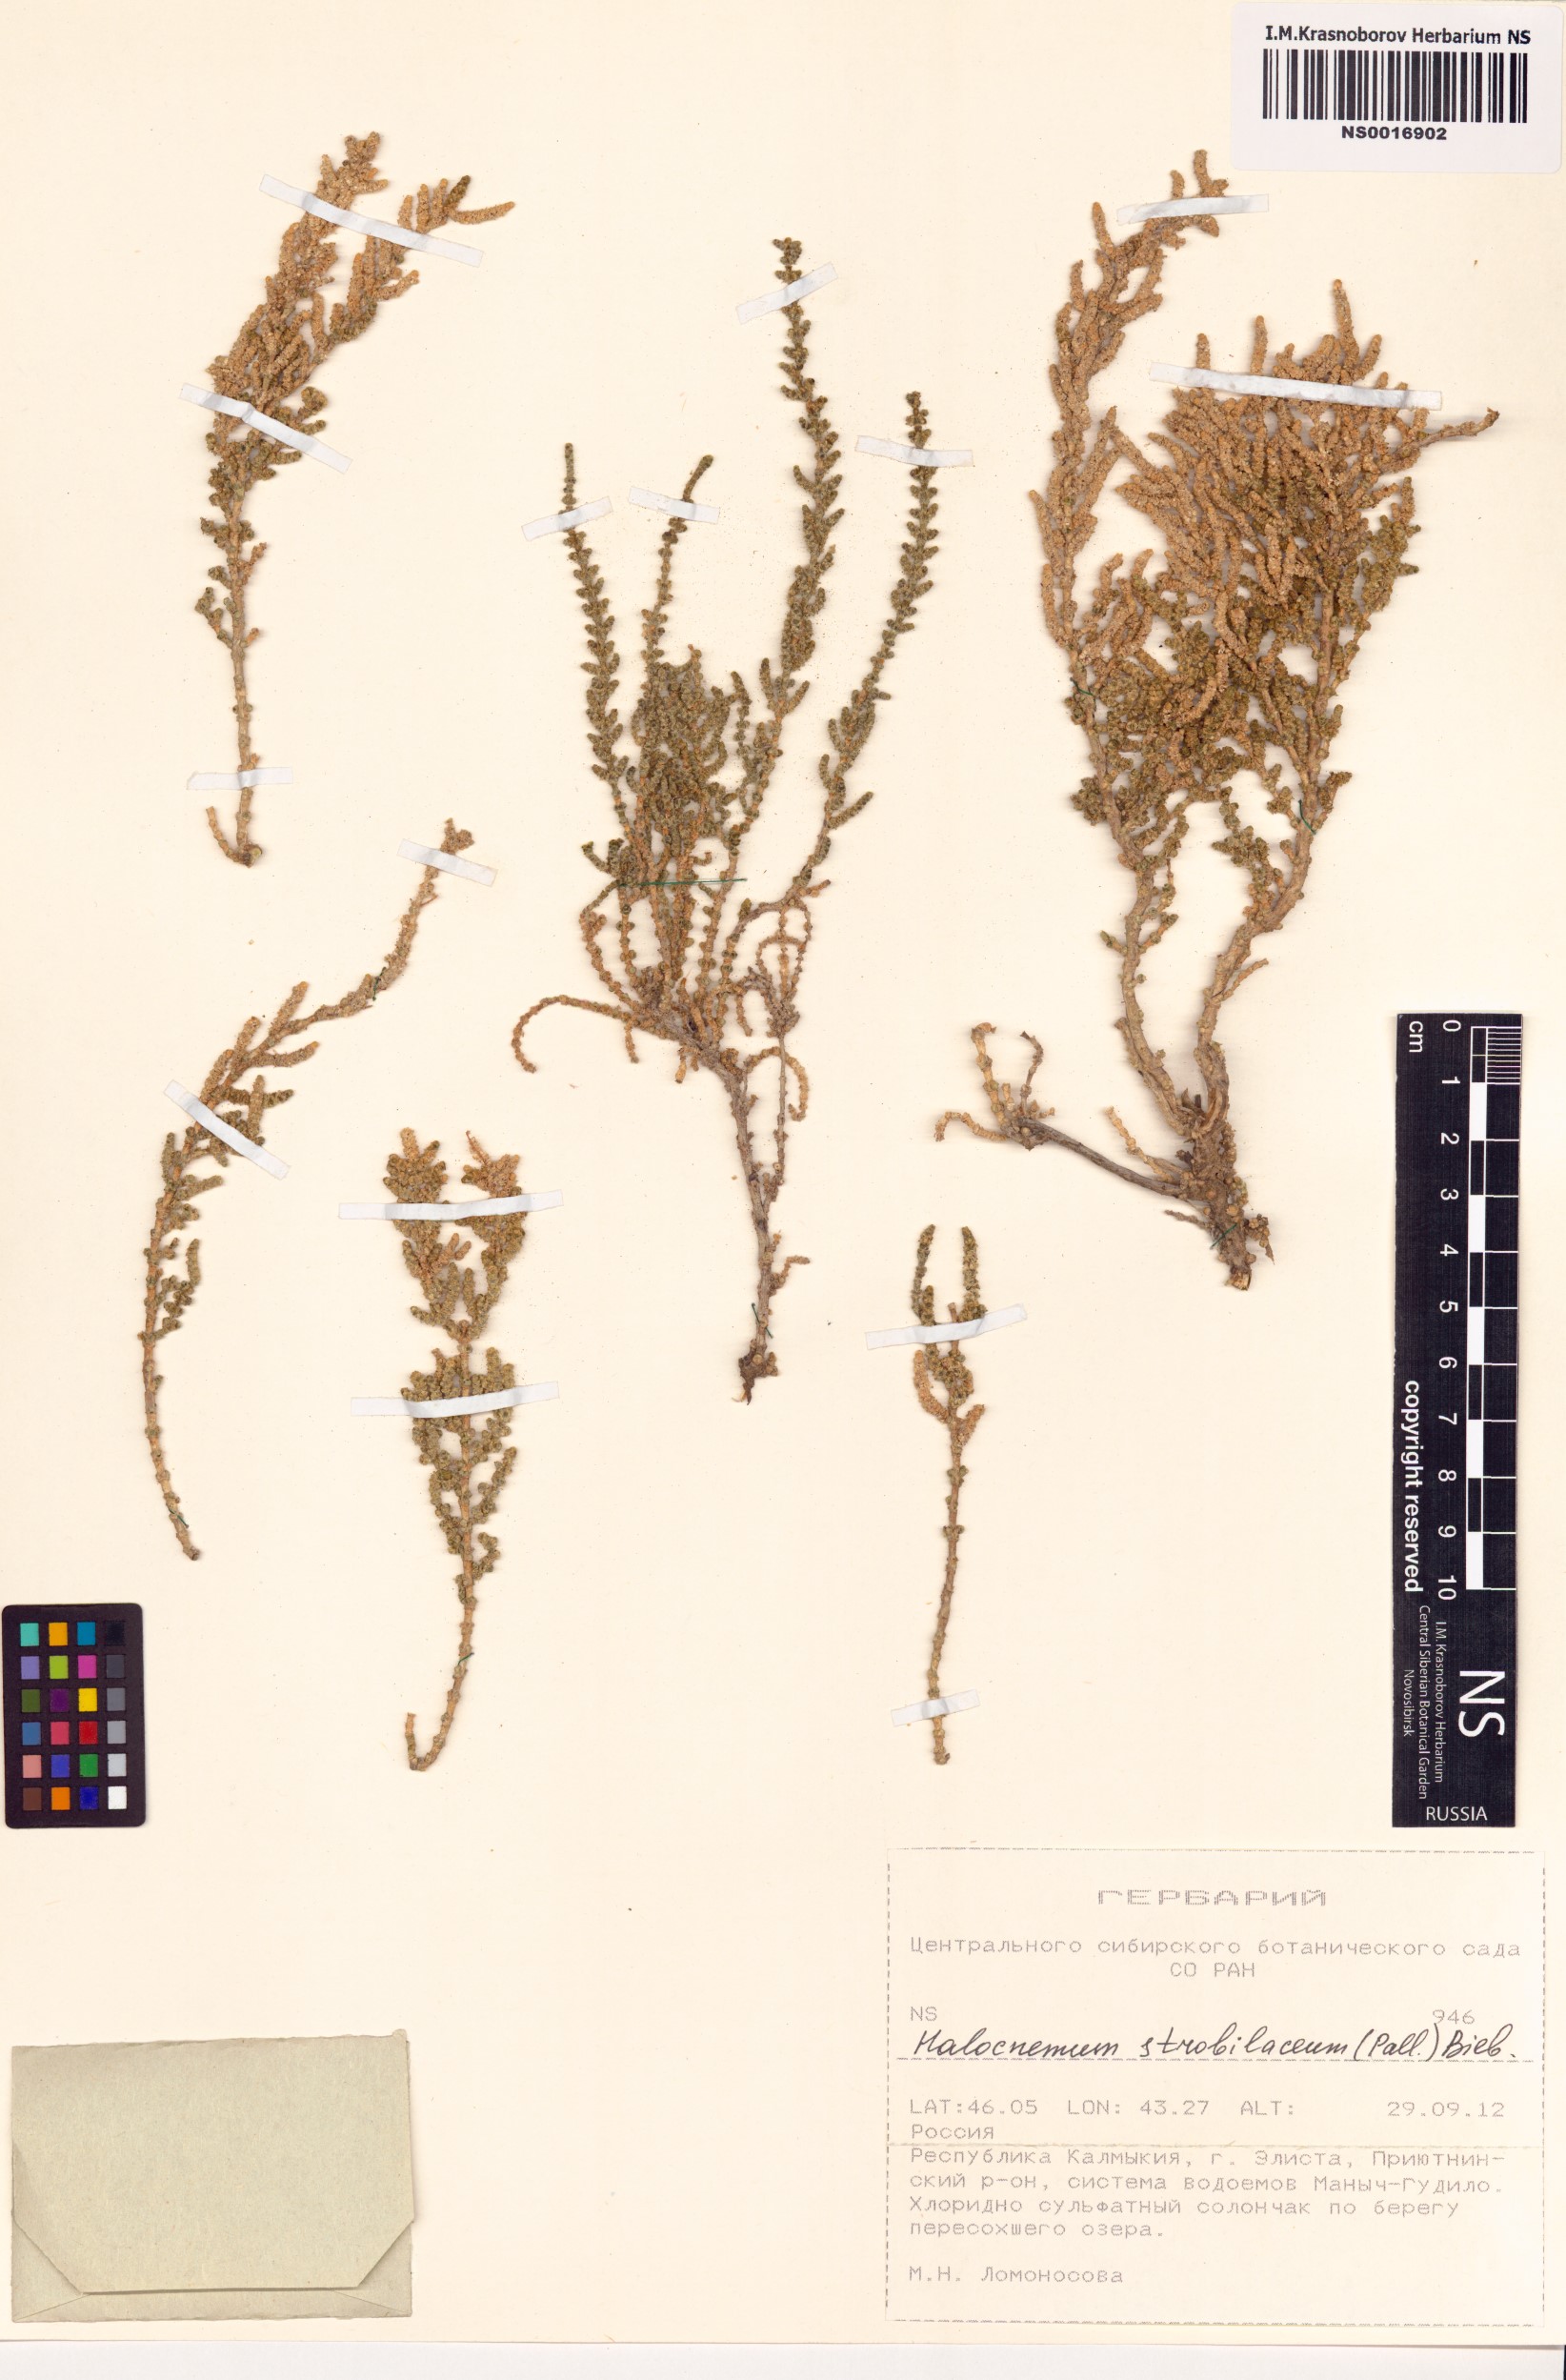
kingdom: Plantae
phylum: Tracheophyta
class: Magnoliopsida
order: Caryophyllales
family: Amaranthaceae
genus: Halocnemum
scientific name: Halocnemum strobilaceum
